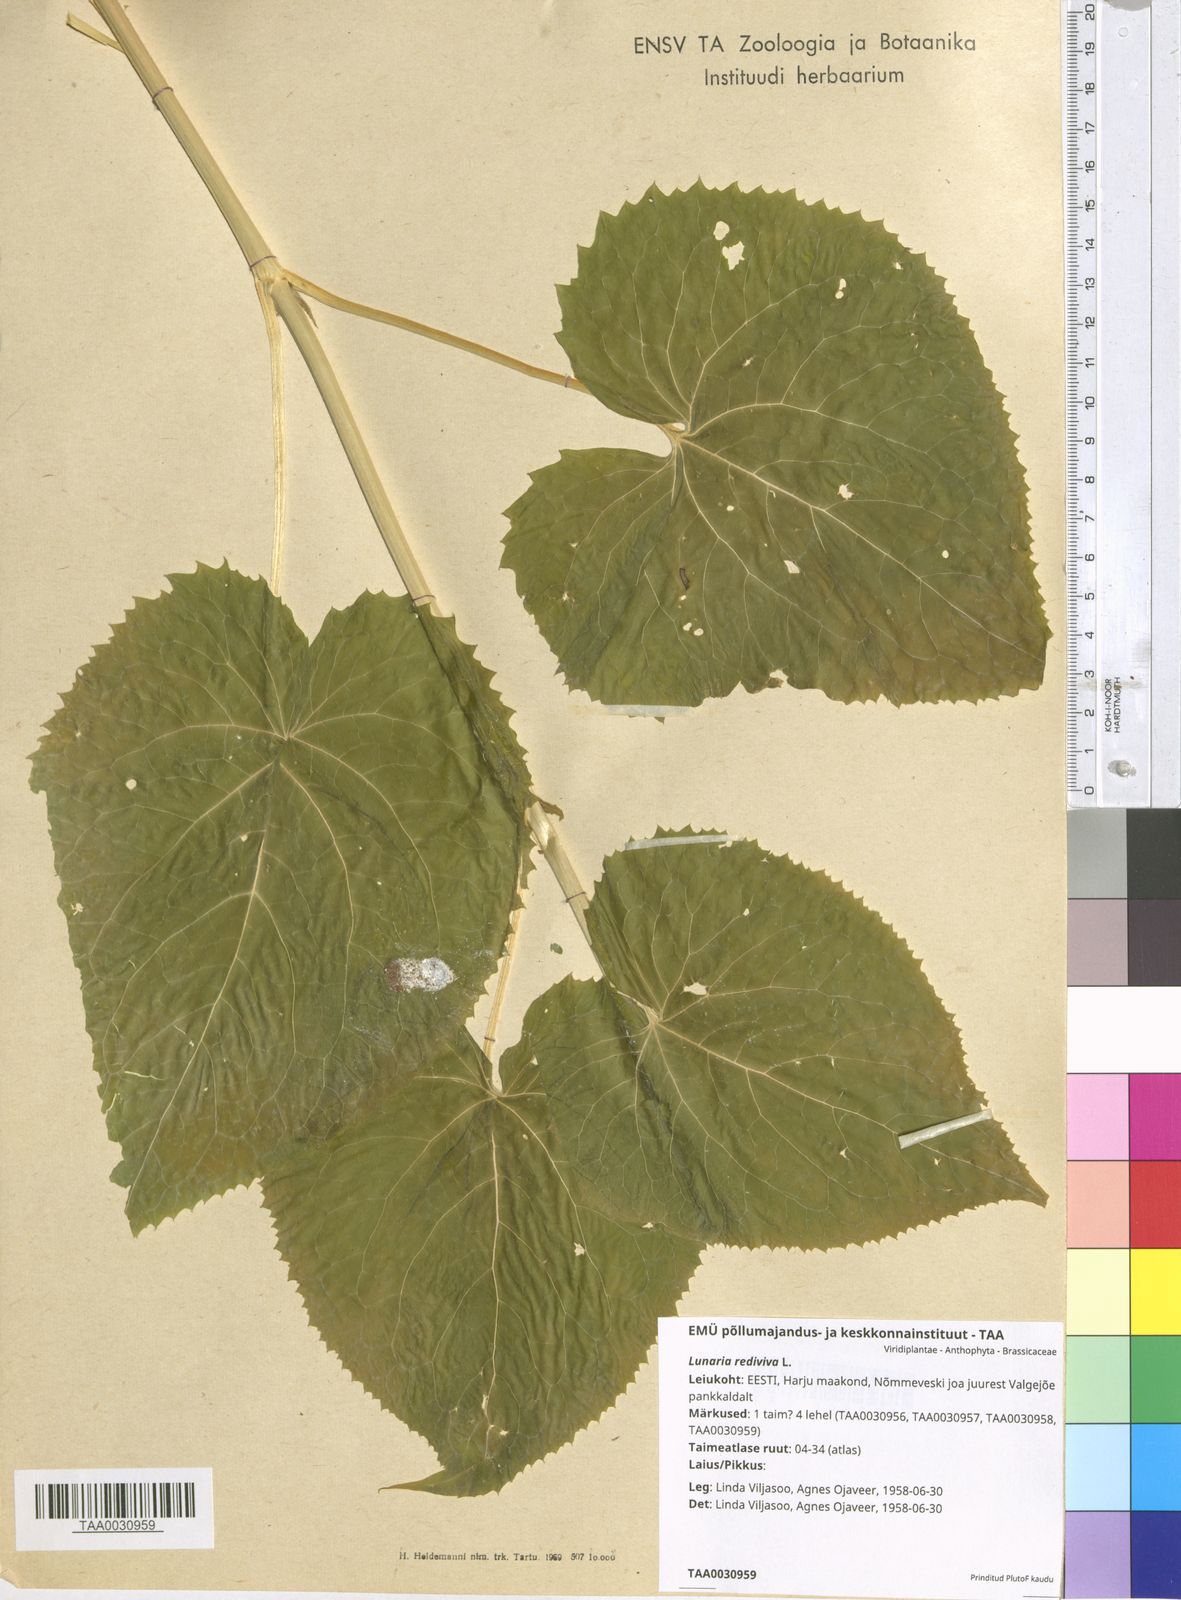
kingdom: Plantae
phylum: Tracheophyta
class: Magnoliopsida
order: Brassicales
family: Brassicaceae
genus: Lunaria
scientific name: Lunaria rediviva
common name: Perennial honesty
